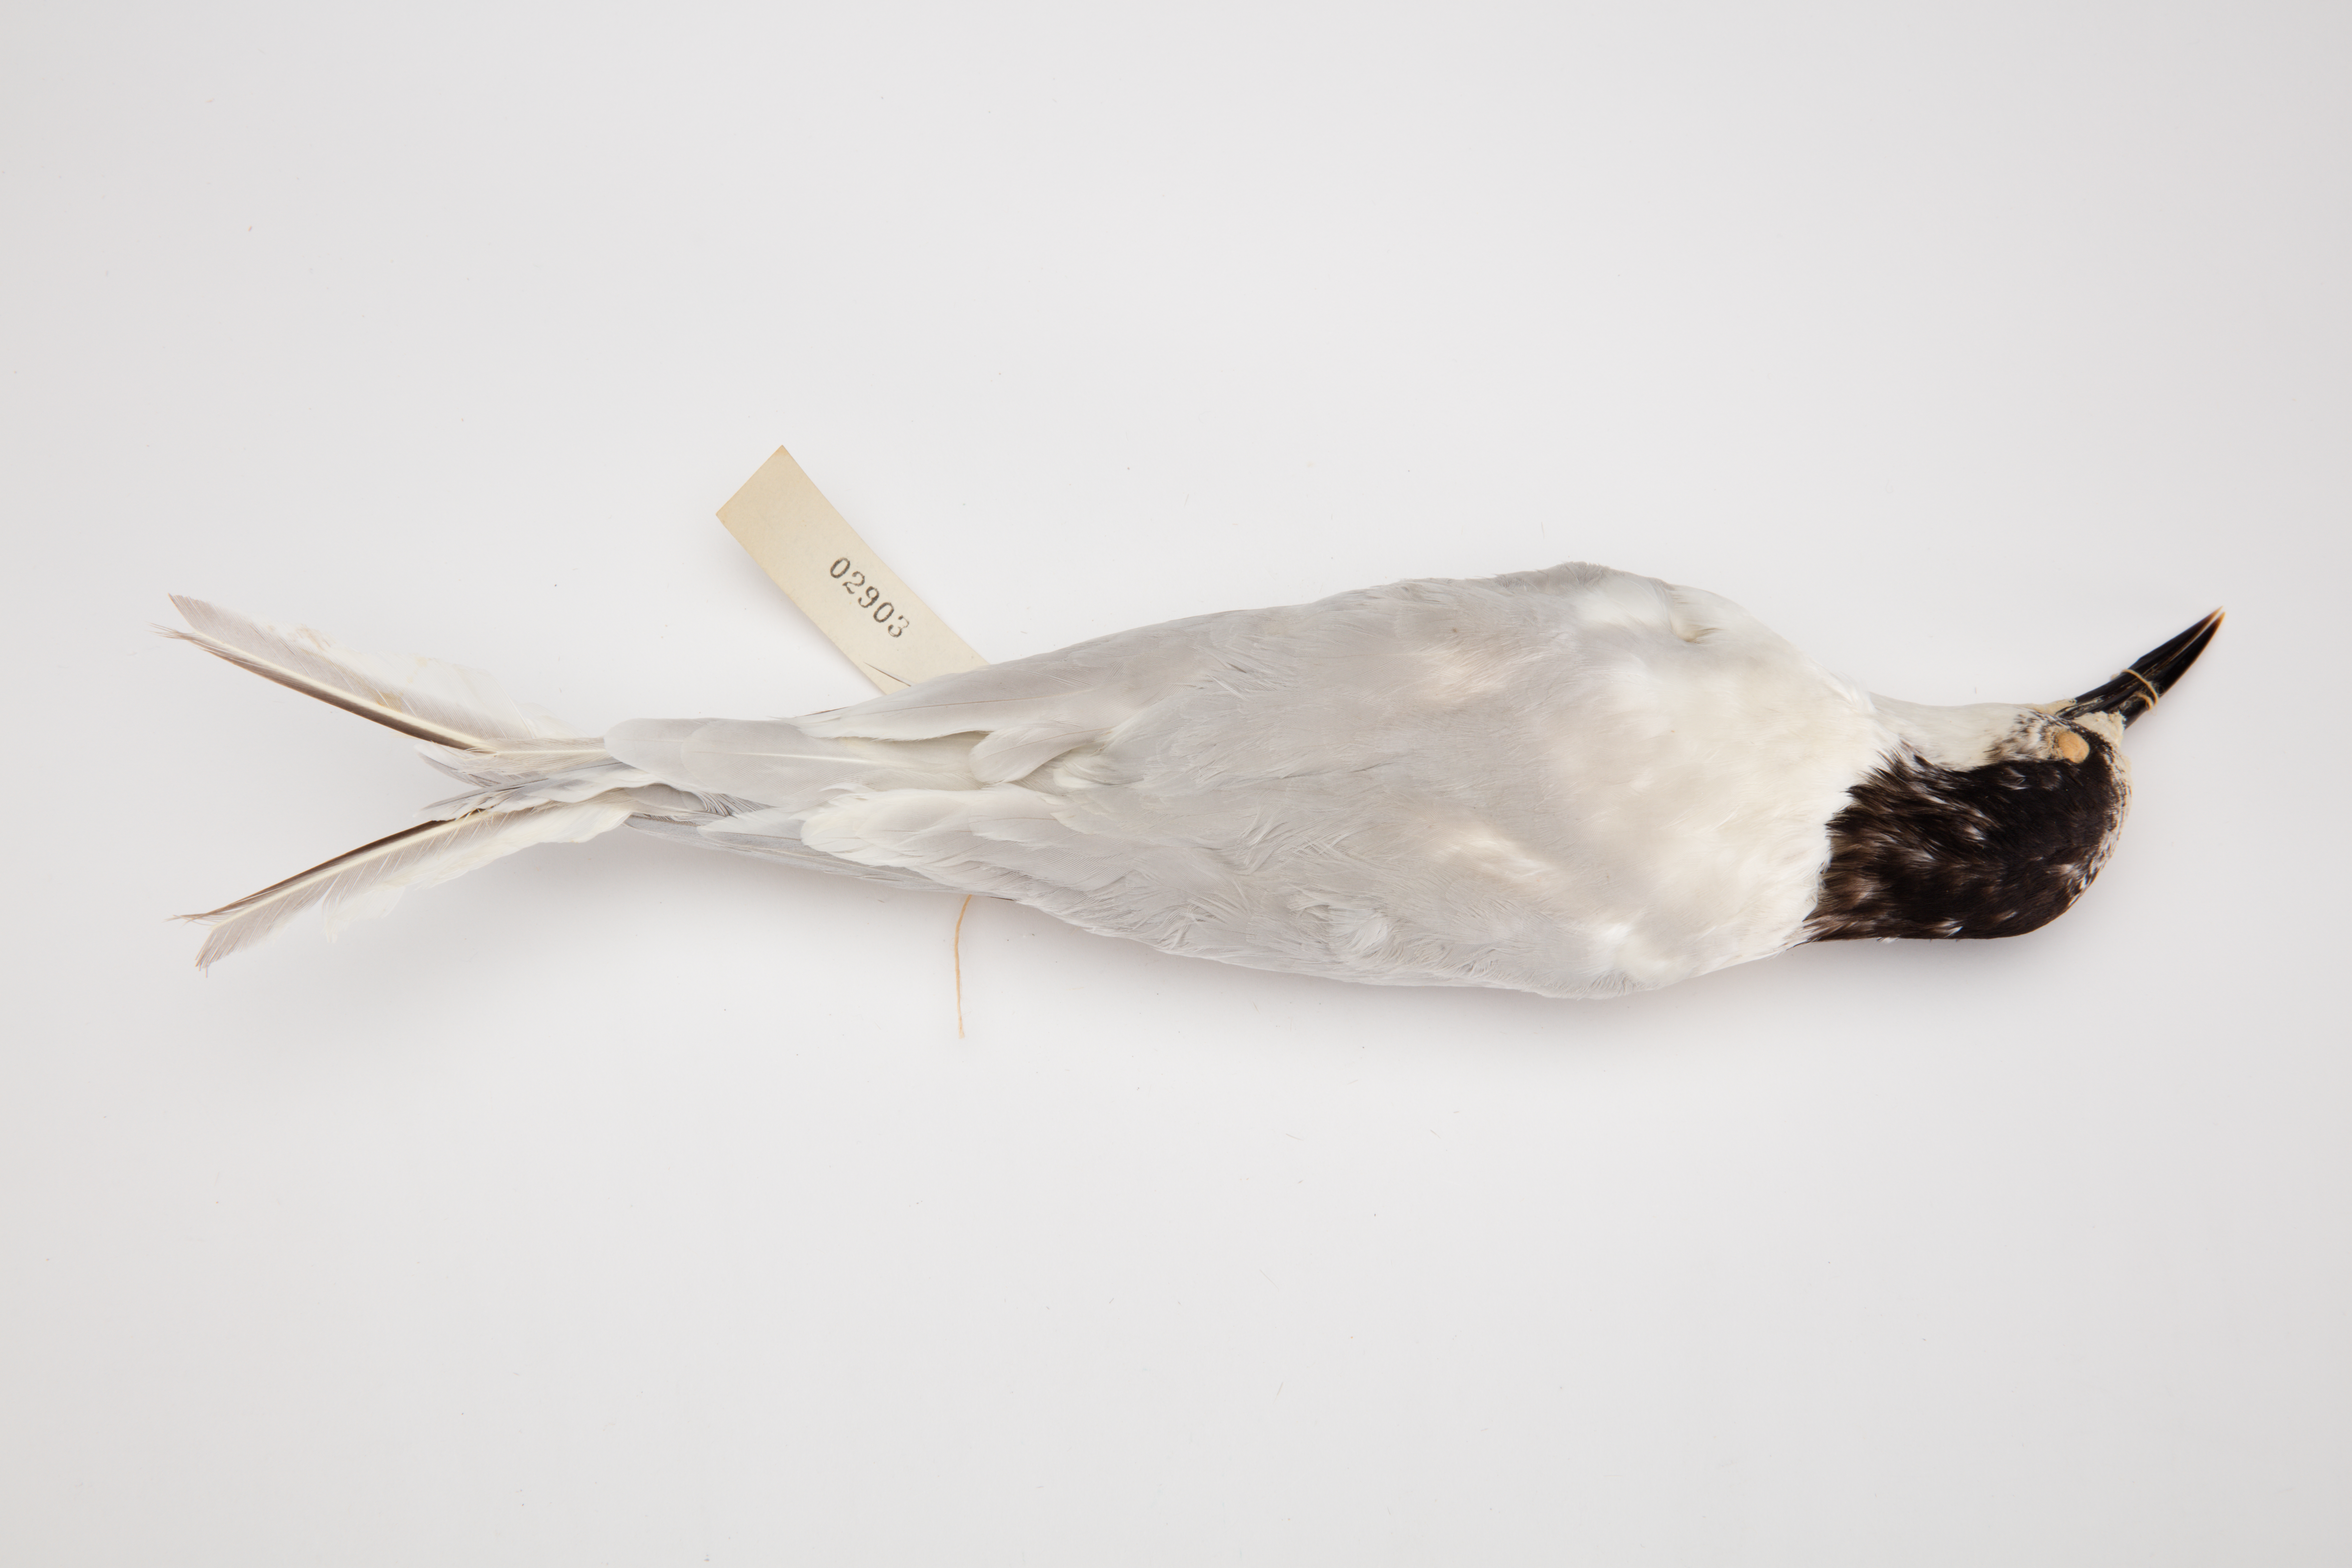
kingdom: Animalia
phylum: Chordata
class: Aves
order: Charadriiformes
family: Laridae
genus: Sterna
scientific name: Sterna striata
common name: White-fronted tern
